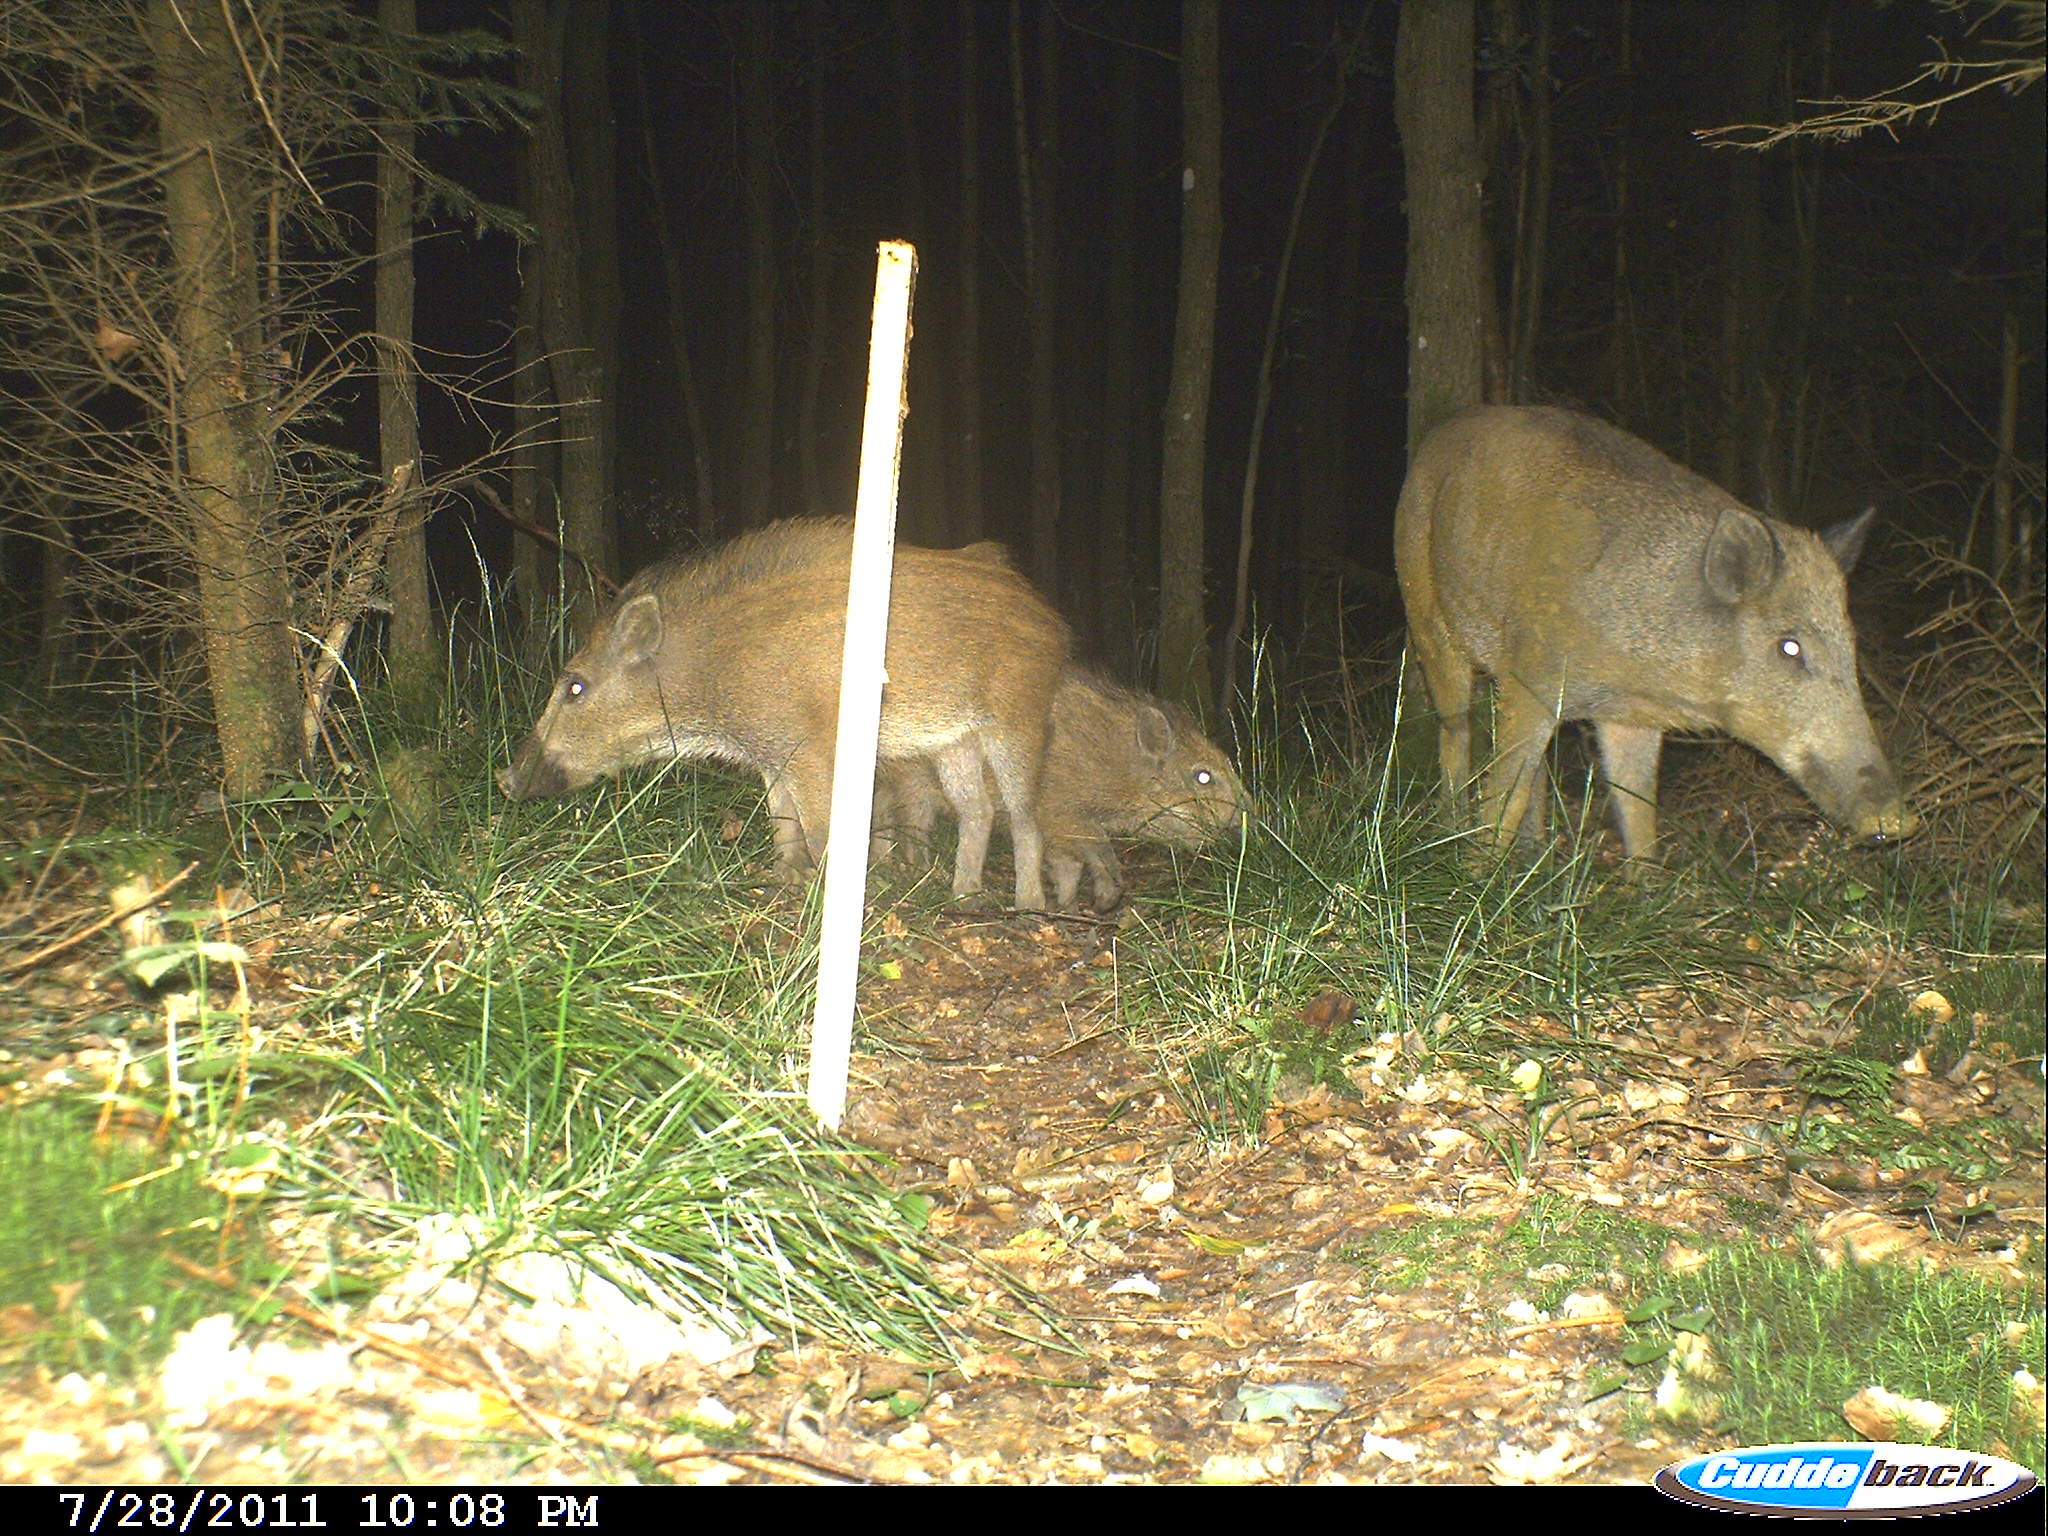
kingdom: Animalia
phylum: Chordata
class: Mammalia
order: Artiodactyla
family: Suidae
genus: Sus
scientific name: Sus scrofa
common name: Wild boar
